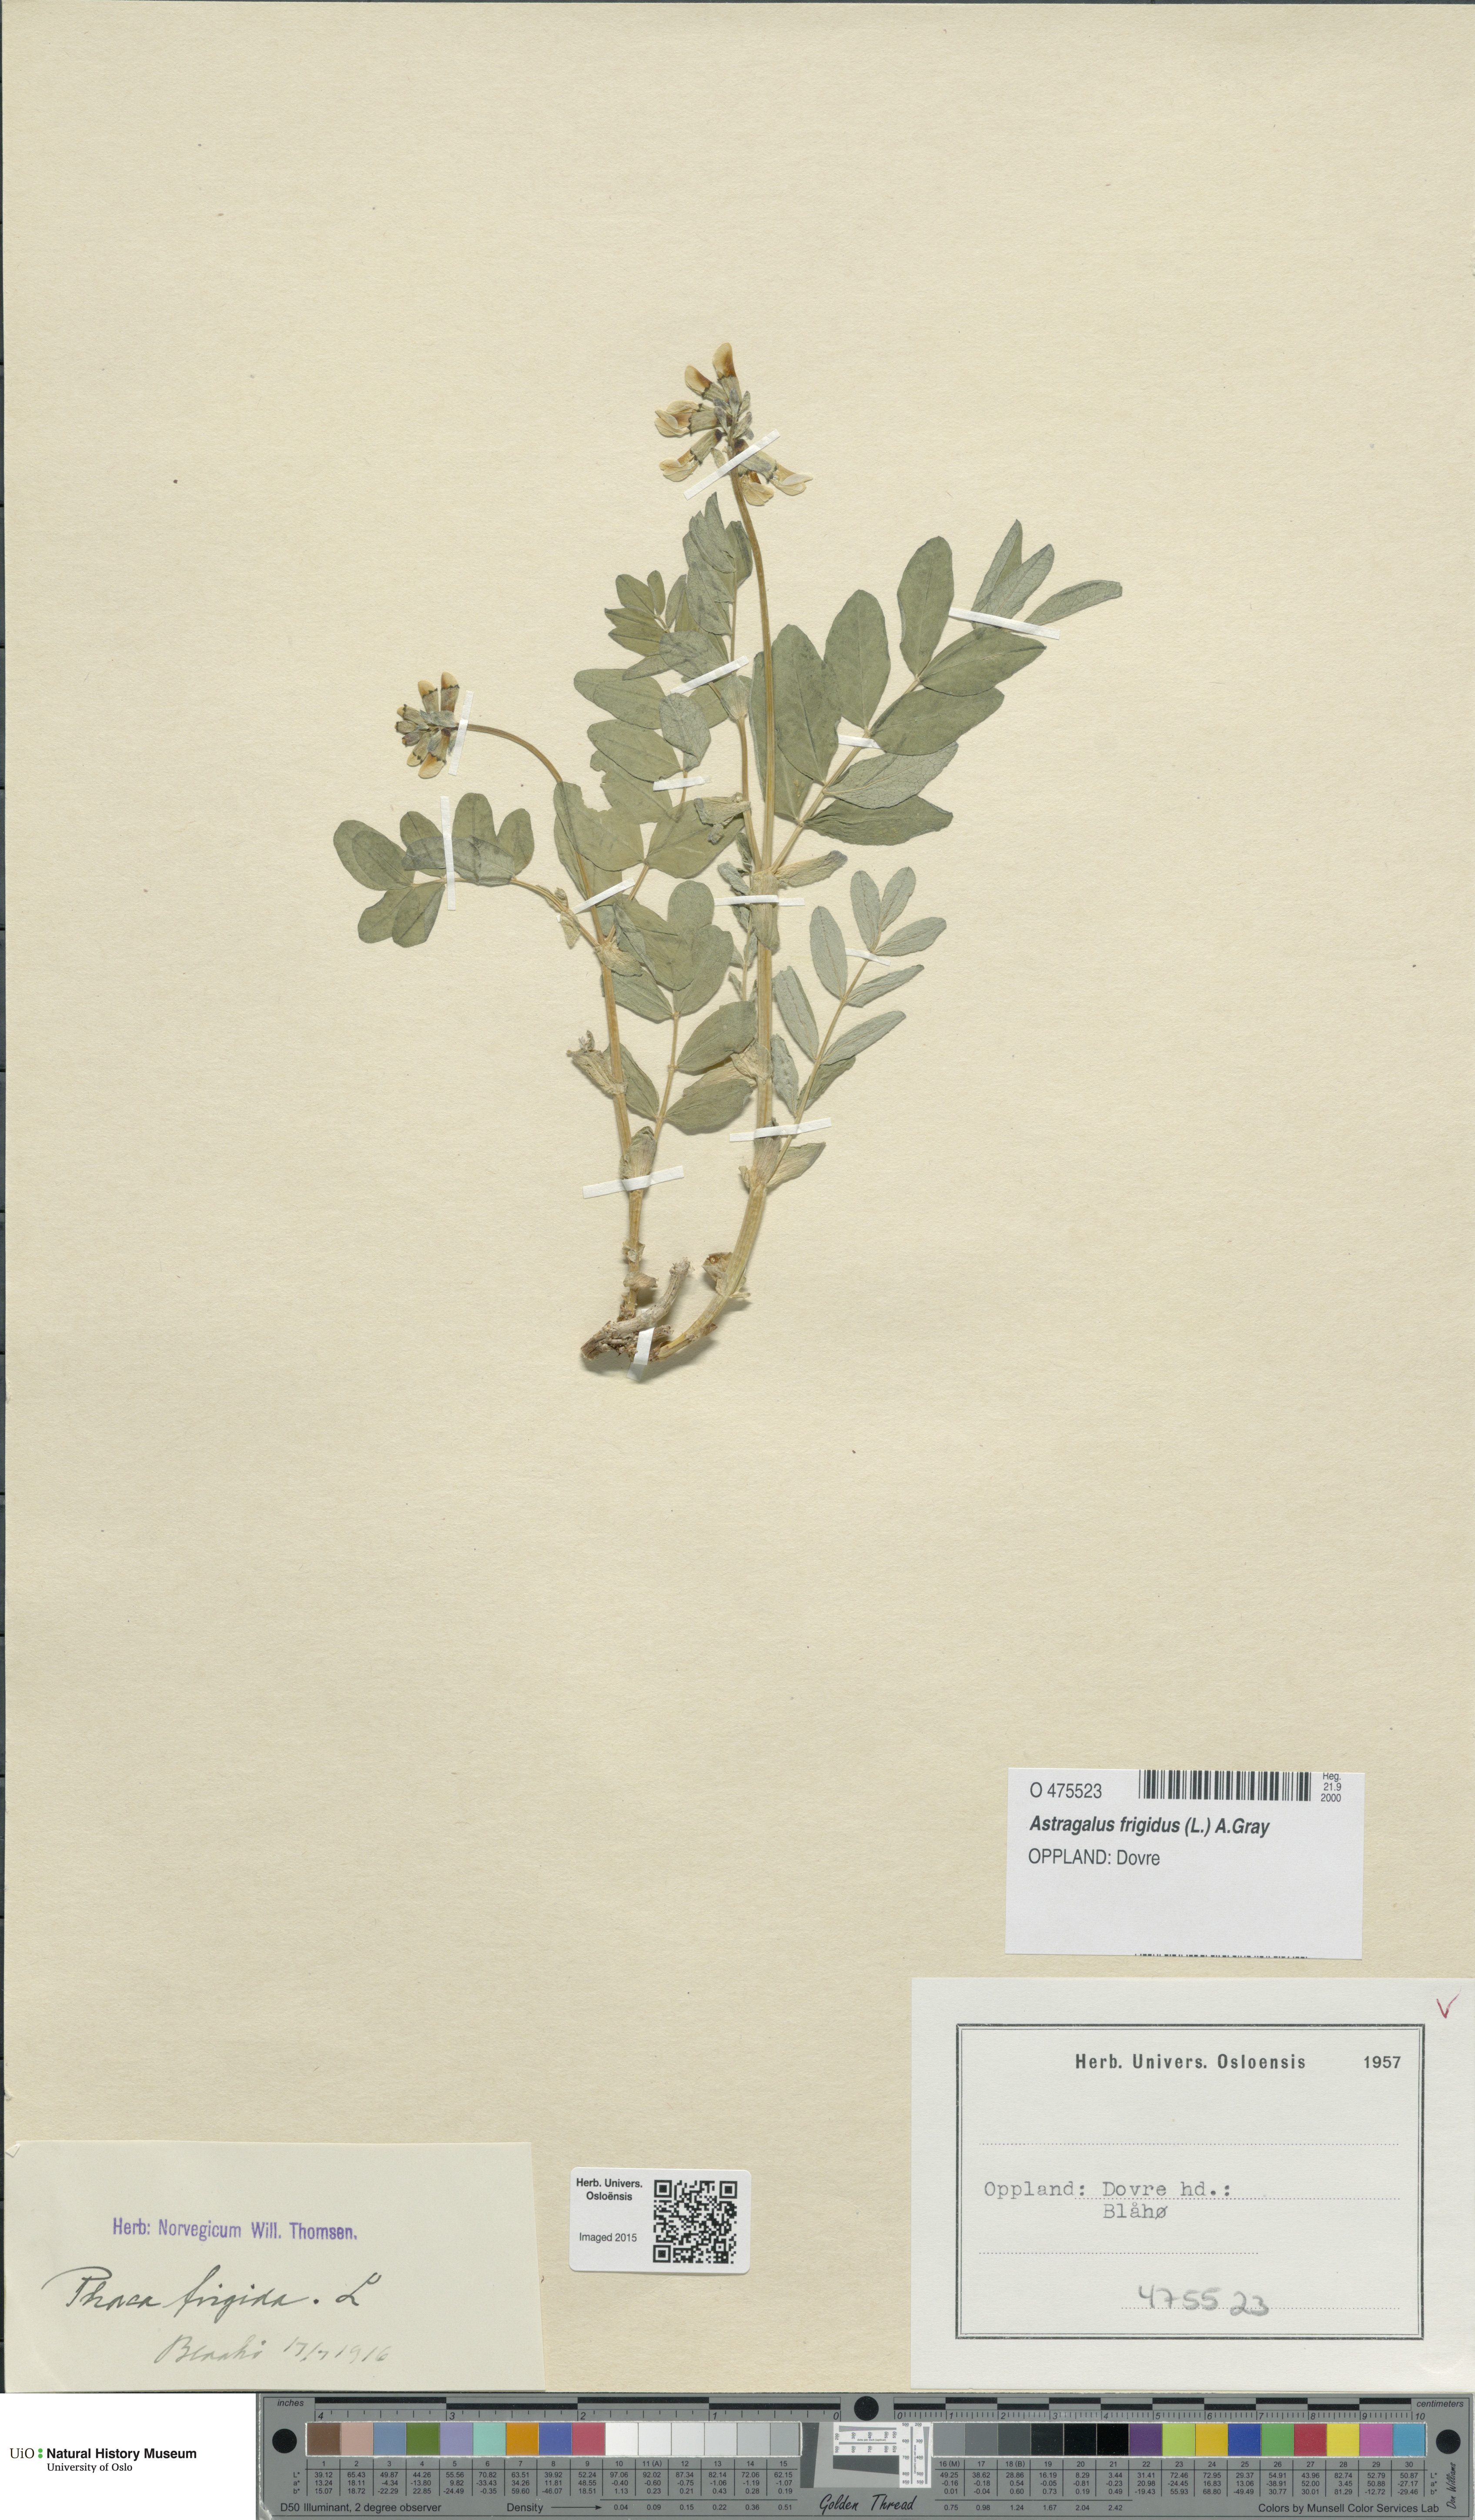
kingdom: Plantae
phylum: Tracheophyta
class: Magnoliopsida
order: Fabales
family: Fabaceae
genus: Astragalus
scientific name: Astragalus frigidus
